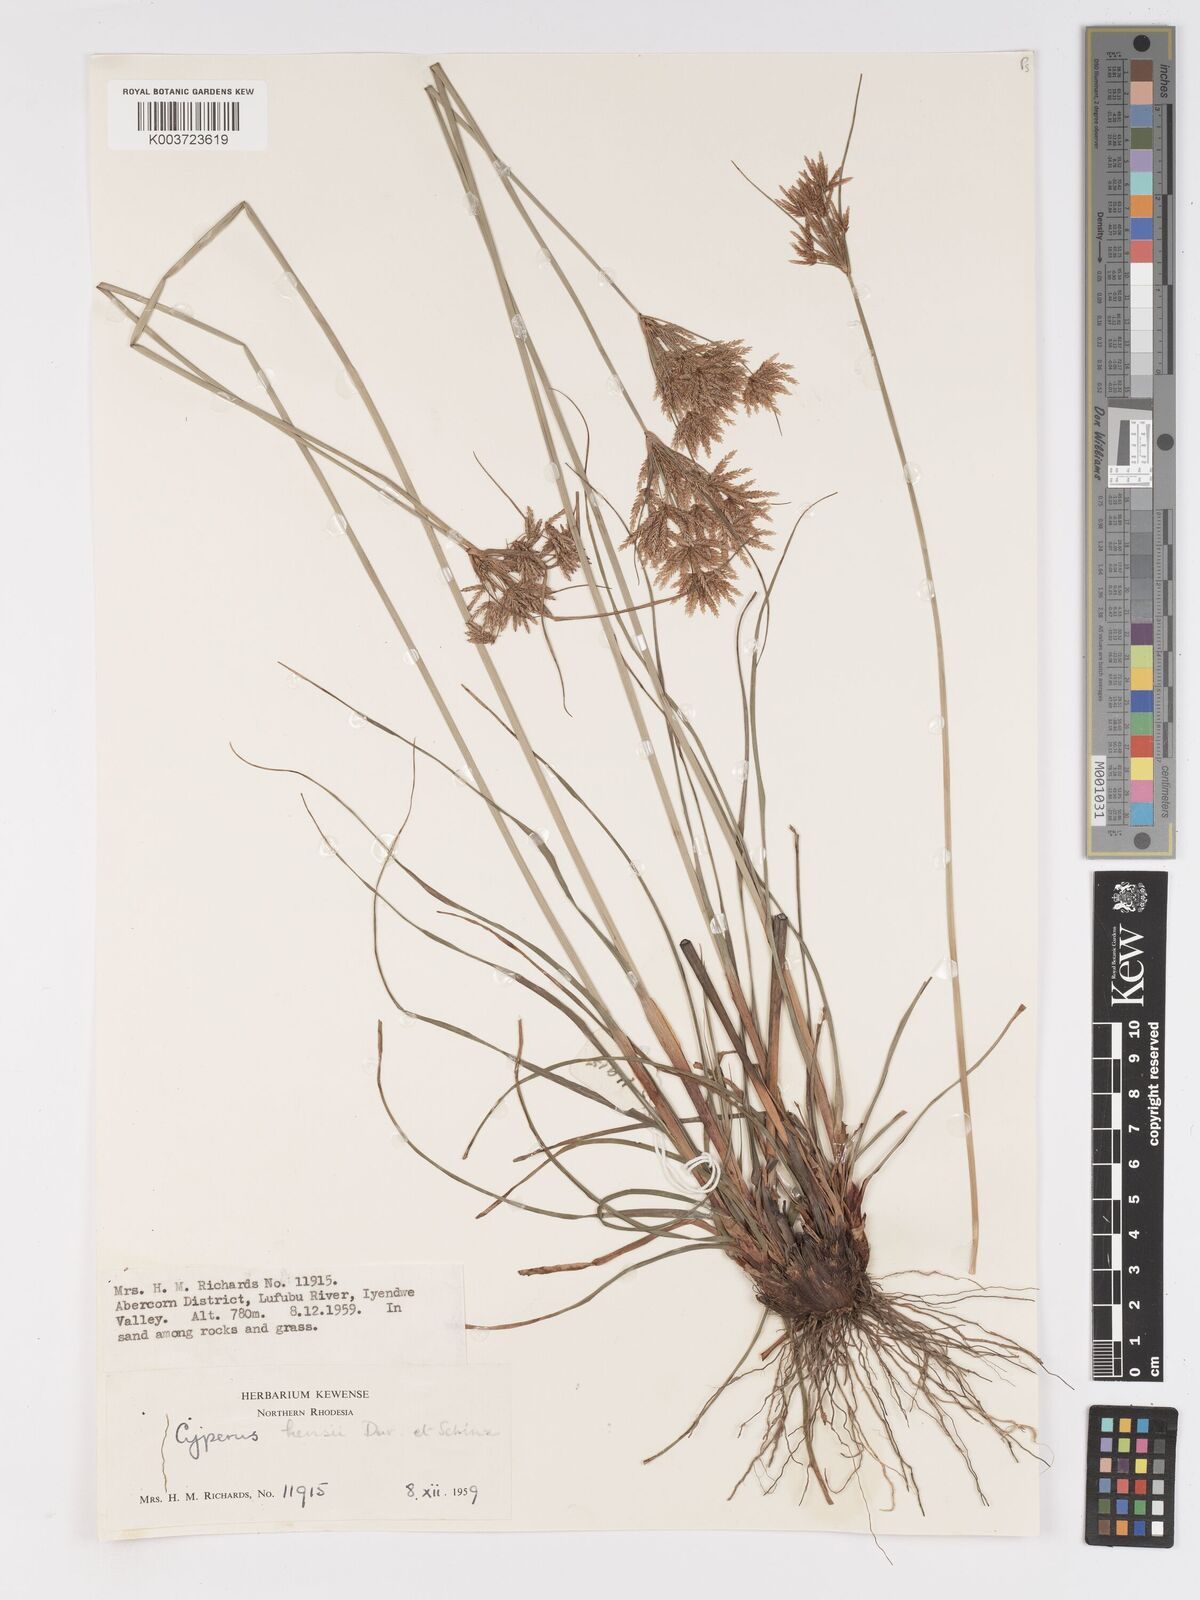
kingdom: Plantae
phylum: Tracheophyta
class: Liliopsida
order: Poales
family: Cyperaceae
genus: Cyperus
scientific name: Cyperus hensii
